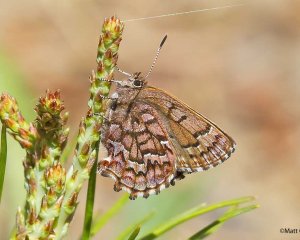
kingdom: Animalia
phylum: Arthropoda
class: Insecta
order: Lepidoptera
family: Lycaenidae
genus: Incisalia
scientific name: Incisalia niphon
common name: Eastern Pine Elfin
